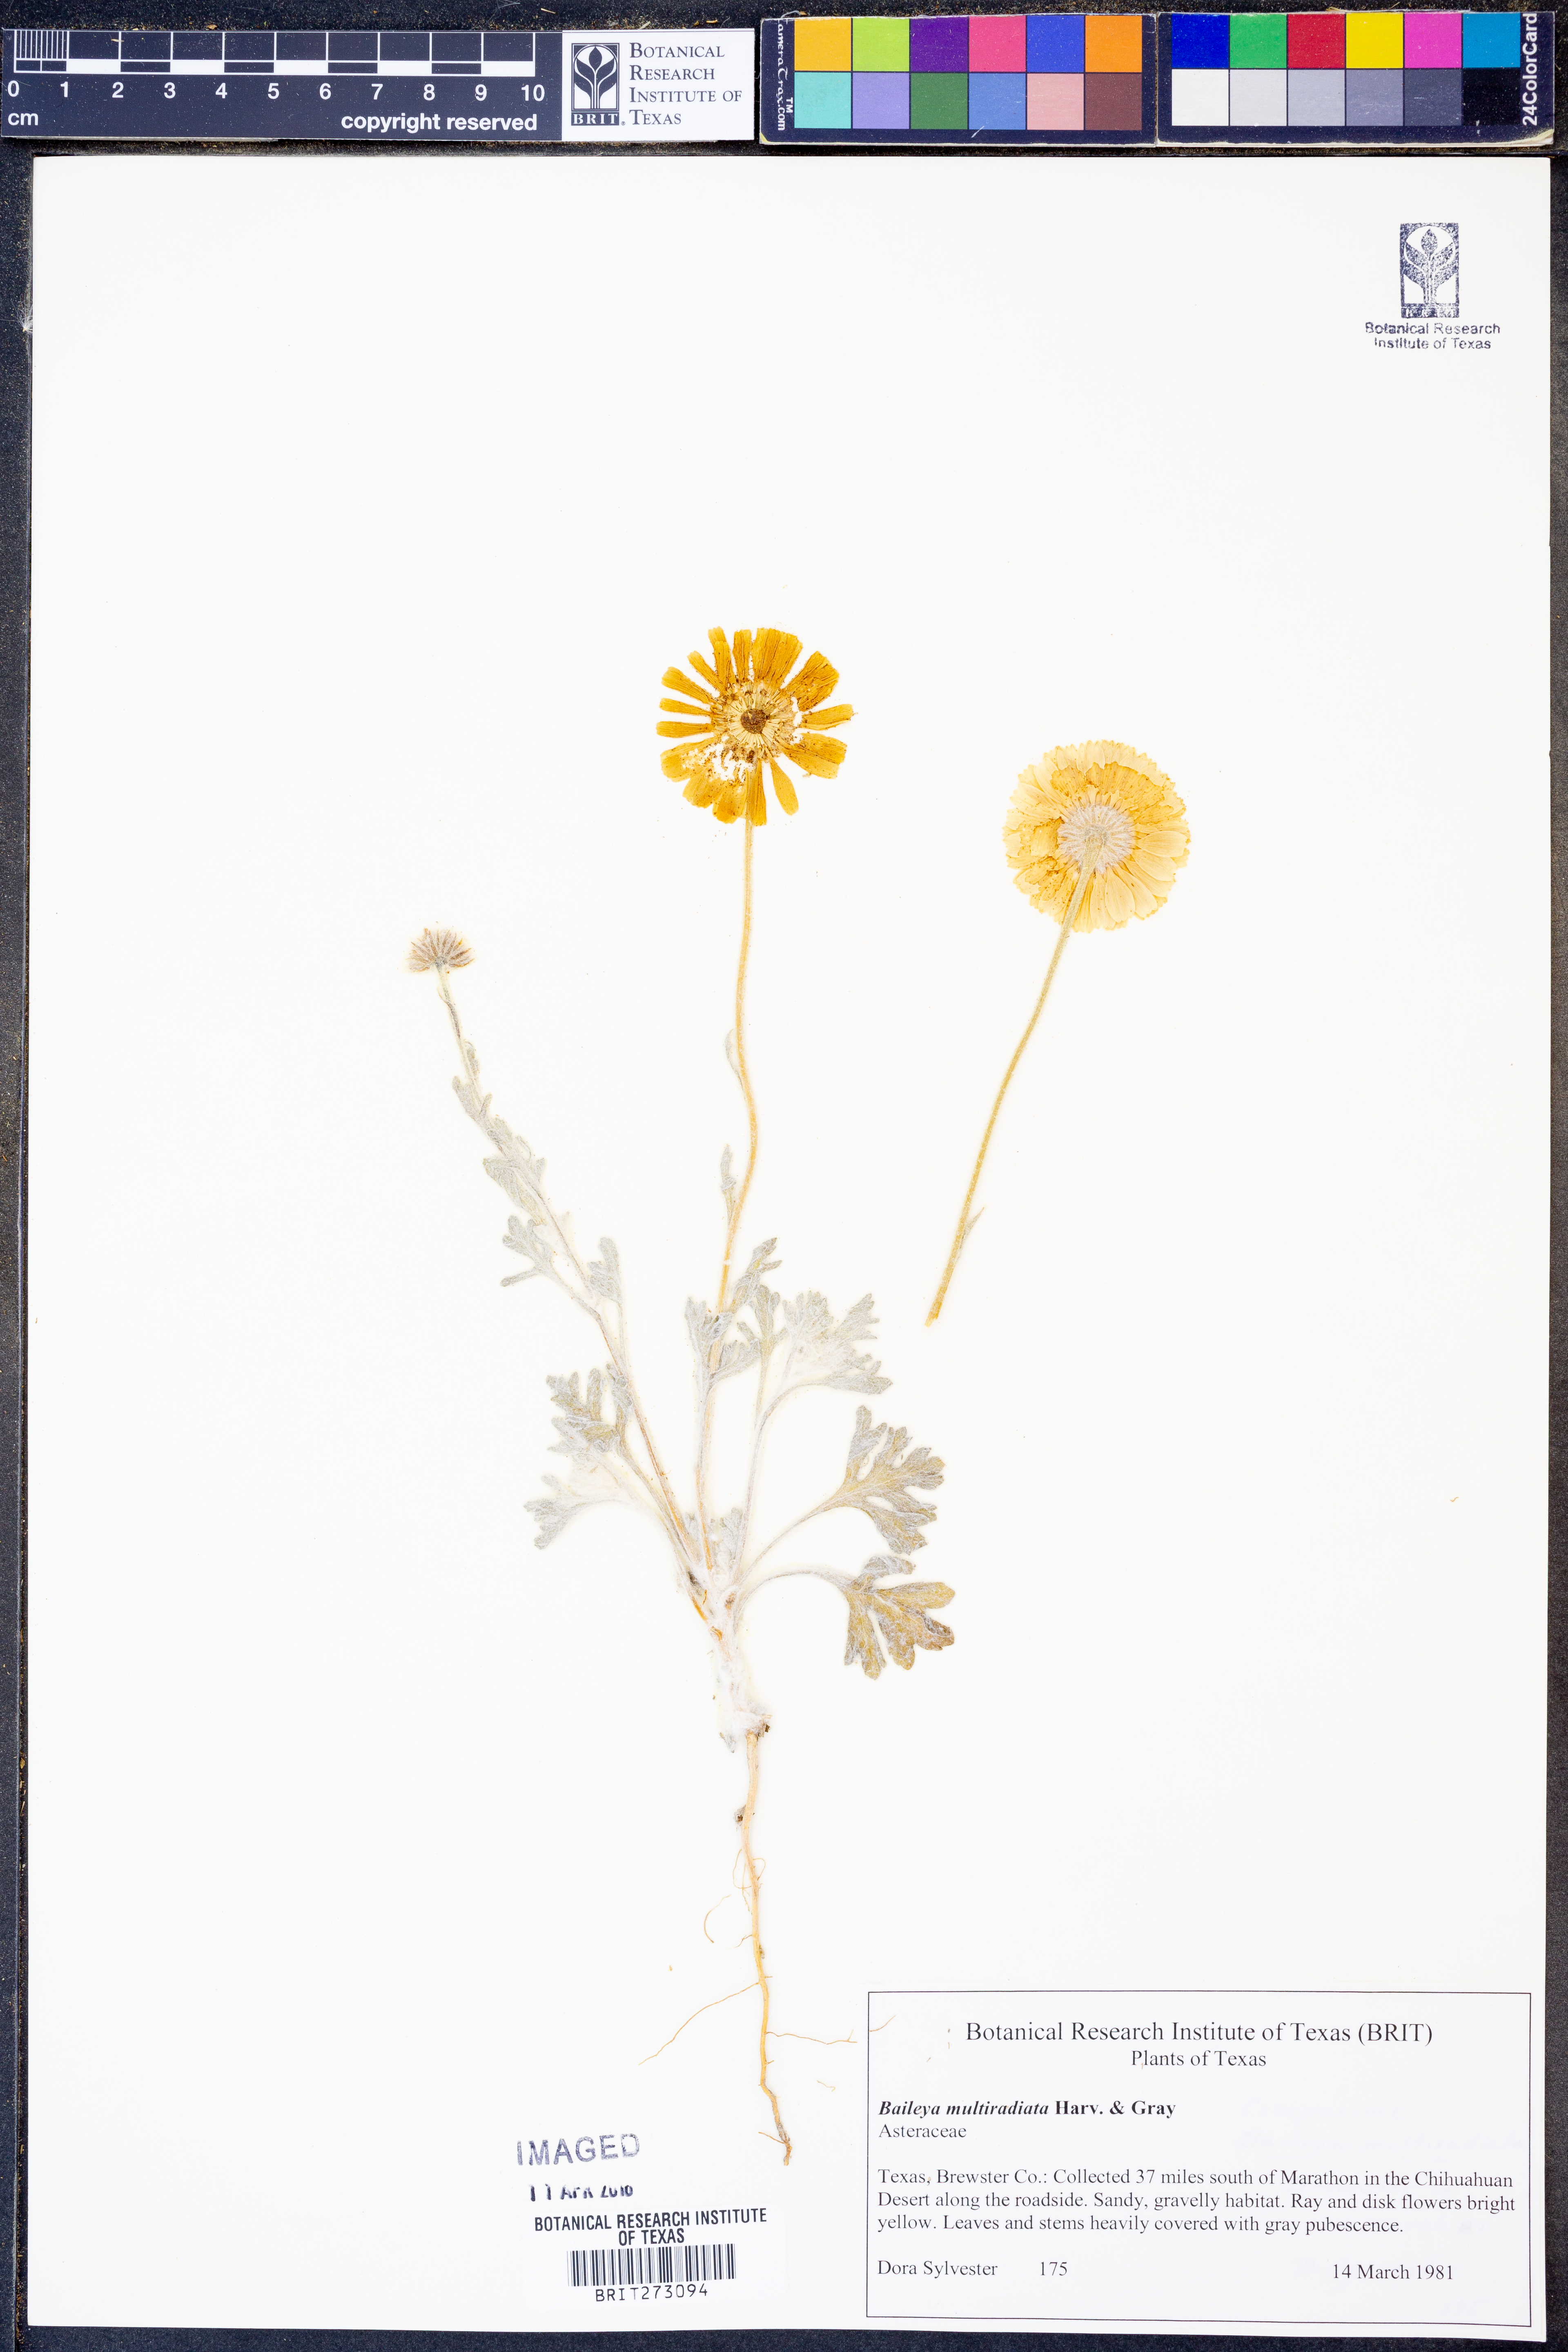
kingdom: Plantae
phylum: Tracheophyta
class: Magnoliopsida
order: Asterales
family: Asteraceae
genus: Baileya
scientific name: Baileya multiradiata
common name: Desert-marigold
